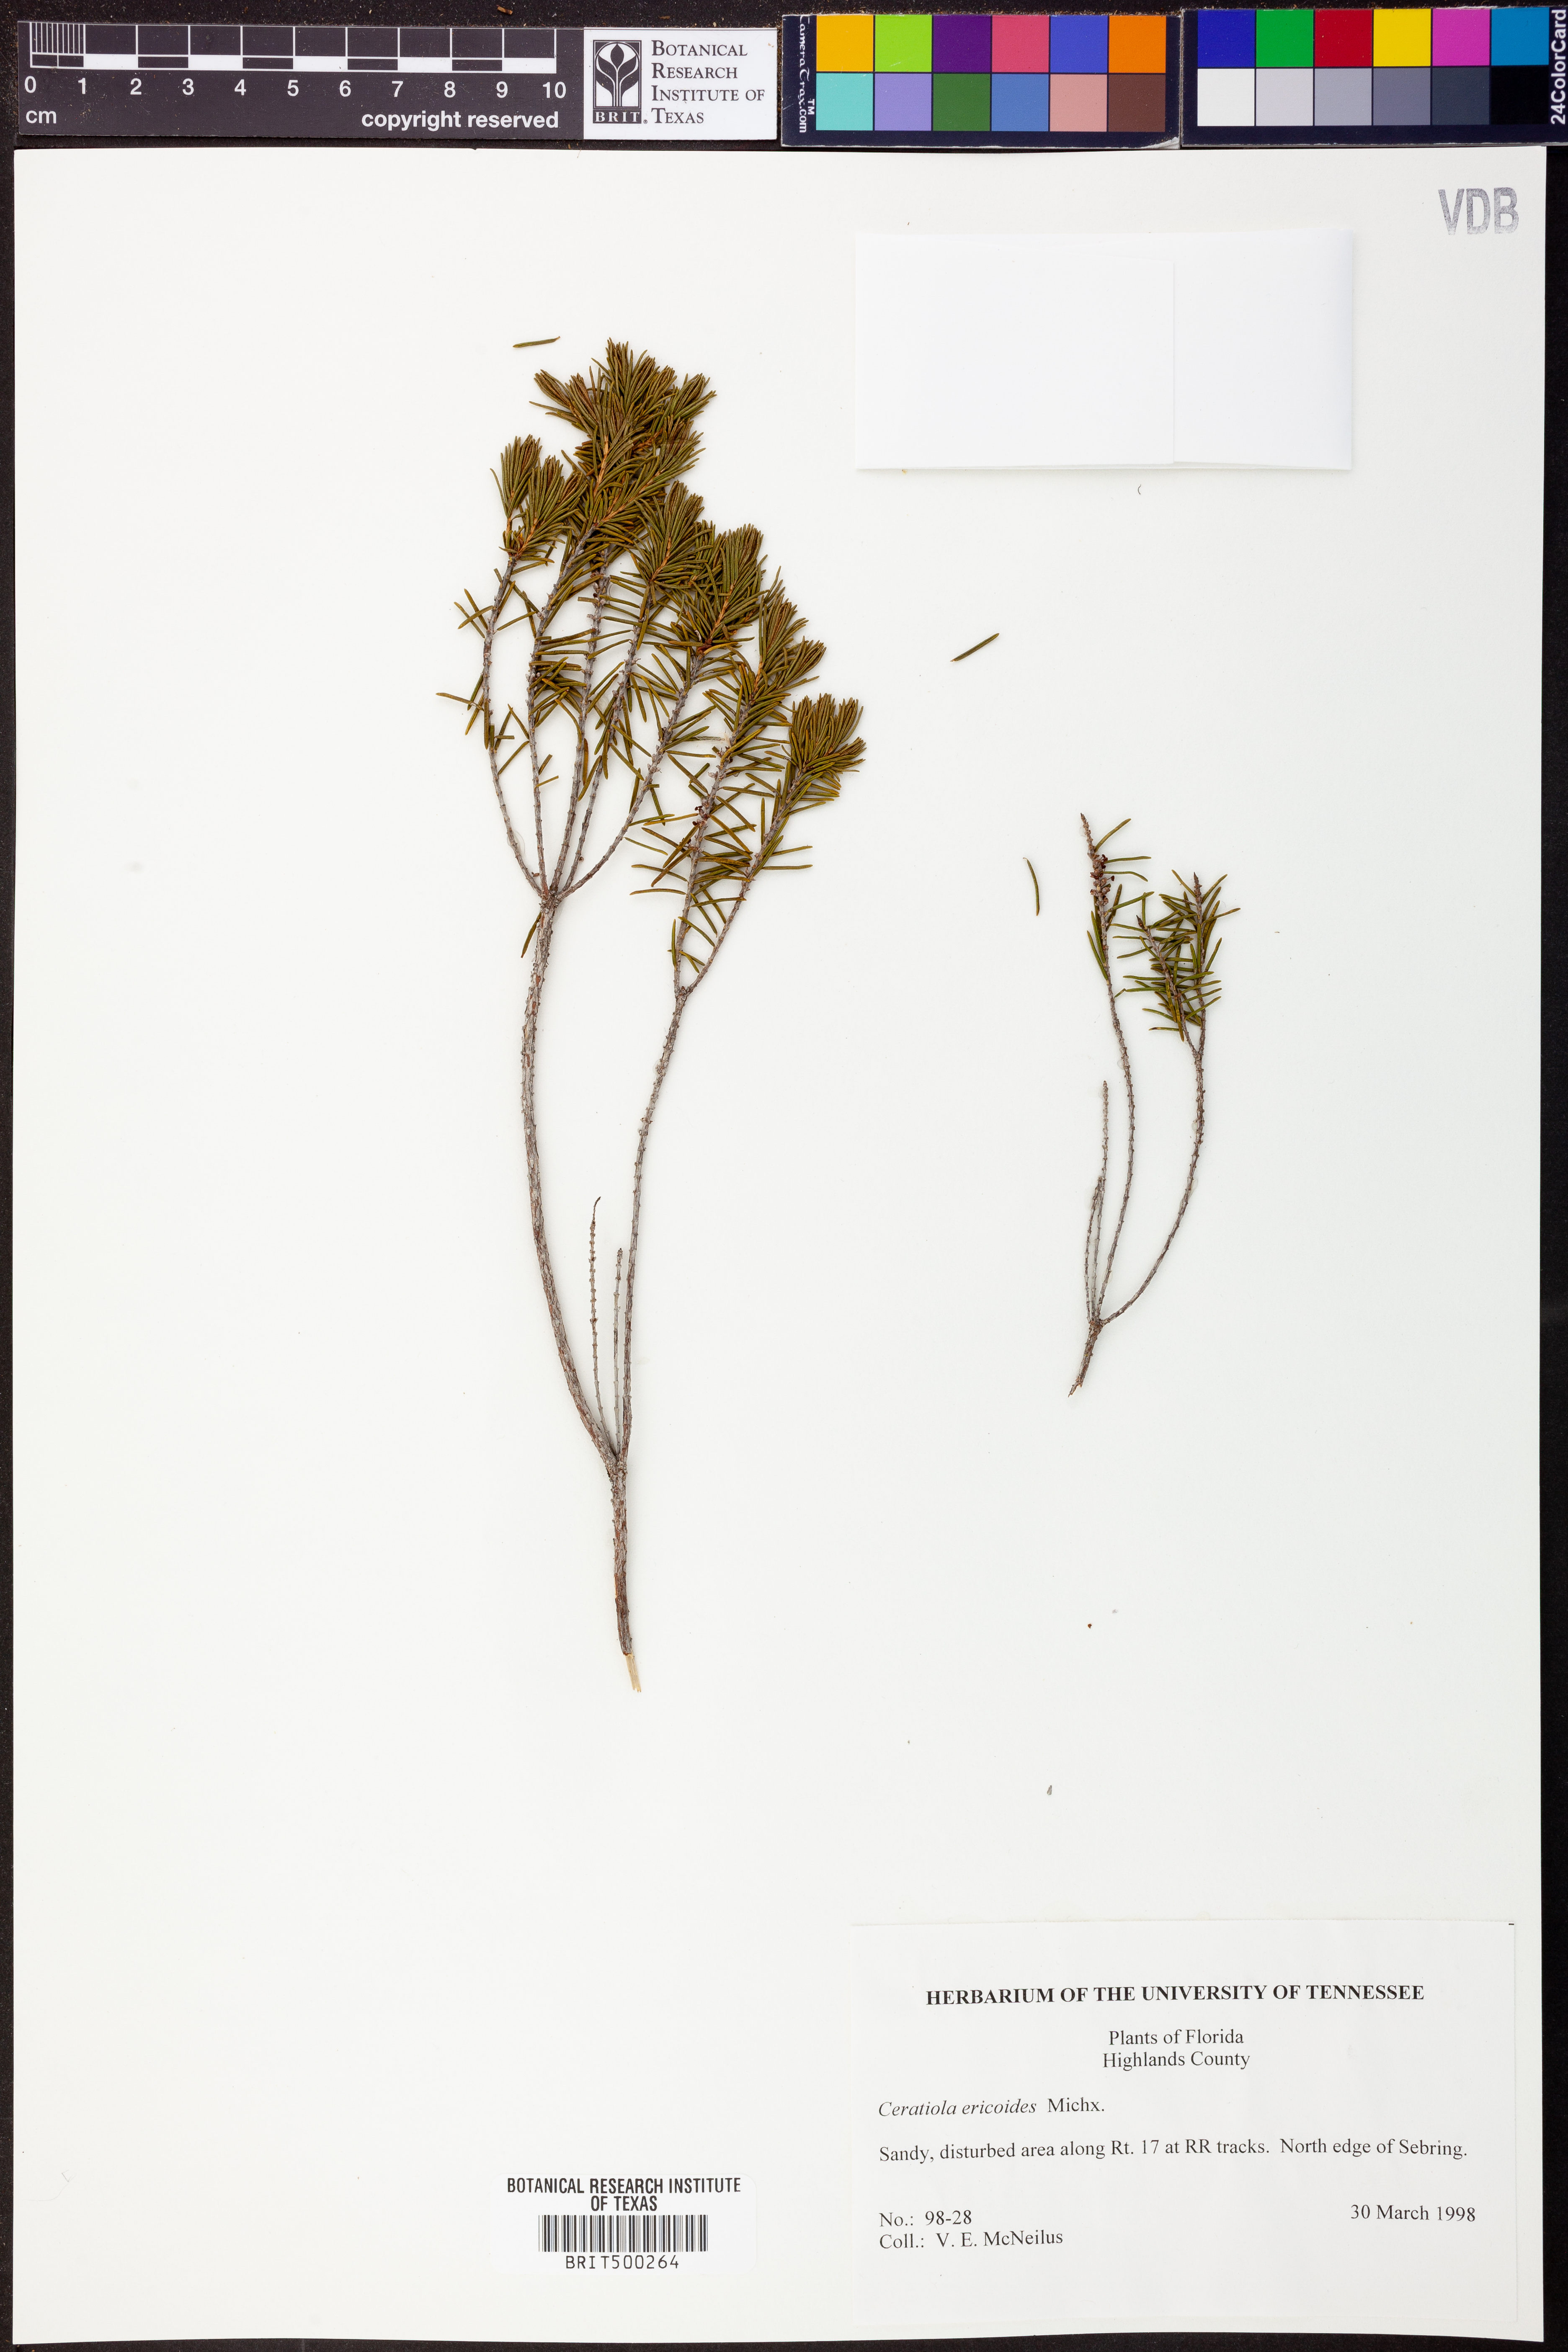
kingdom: Plantae
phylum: Tracheophyta
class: Magnoliopsida
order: Ericales
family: Ericaceae
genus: Ceratiola
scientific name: Ceratiola ericoides
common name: Sandhill-rosemary
